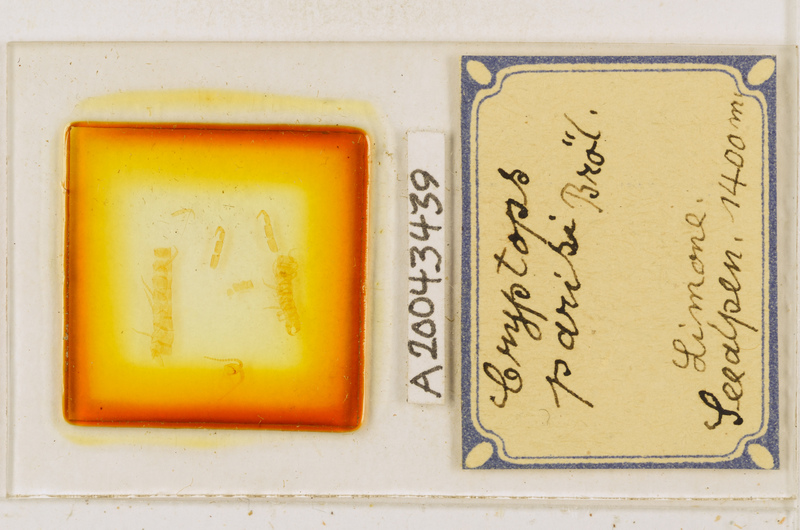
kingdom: Animalia
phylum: Arthropoda
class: Chilopoda
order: Scolopendromorpha
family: Cryptopidae
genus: Cryptops
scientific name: Cryptops parisi
